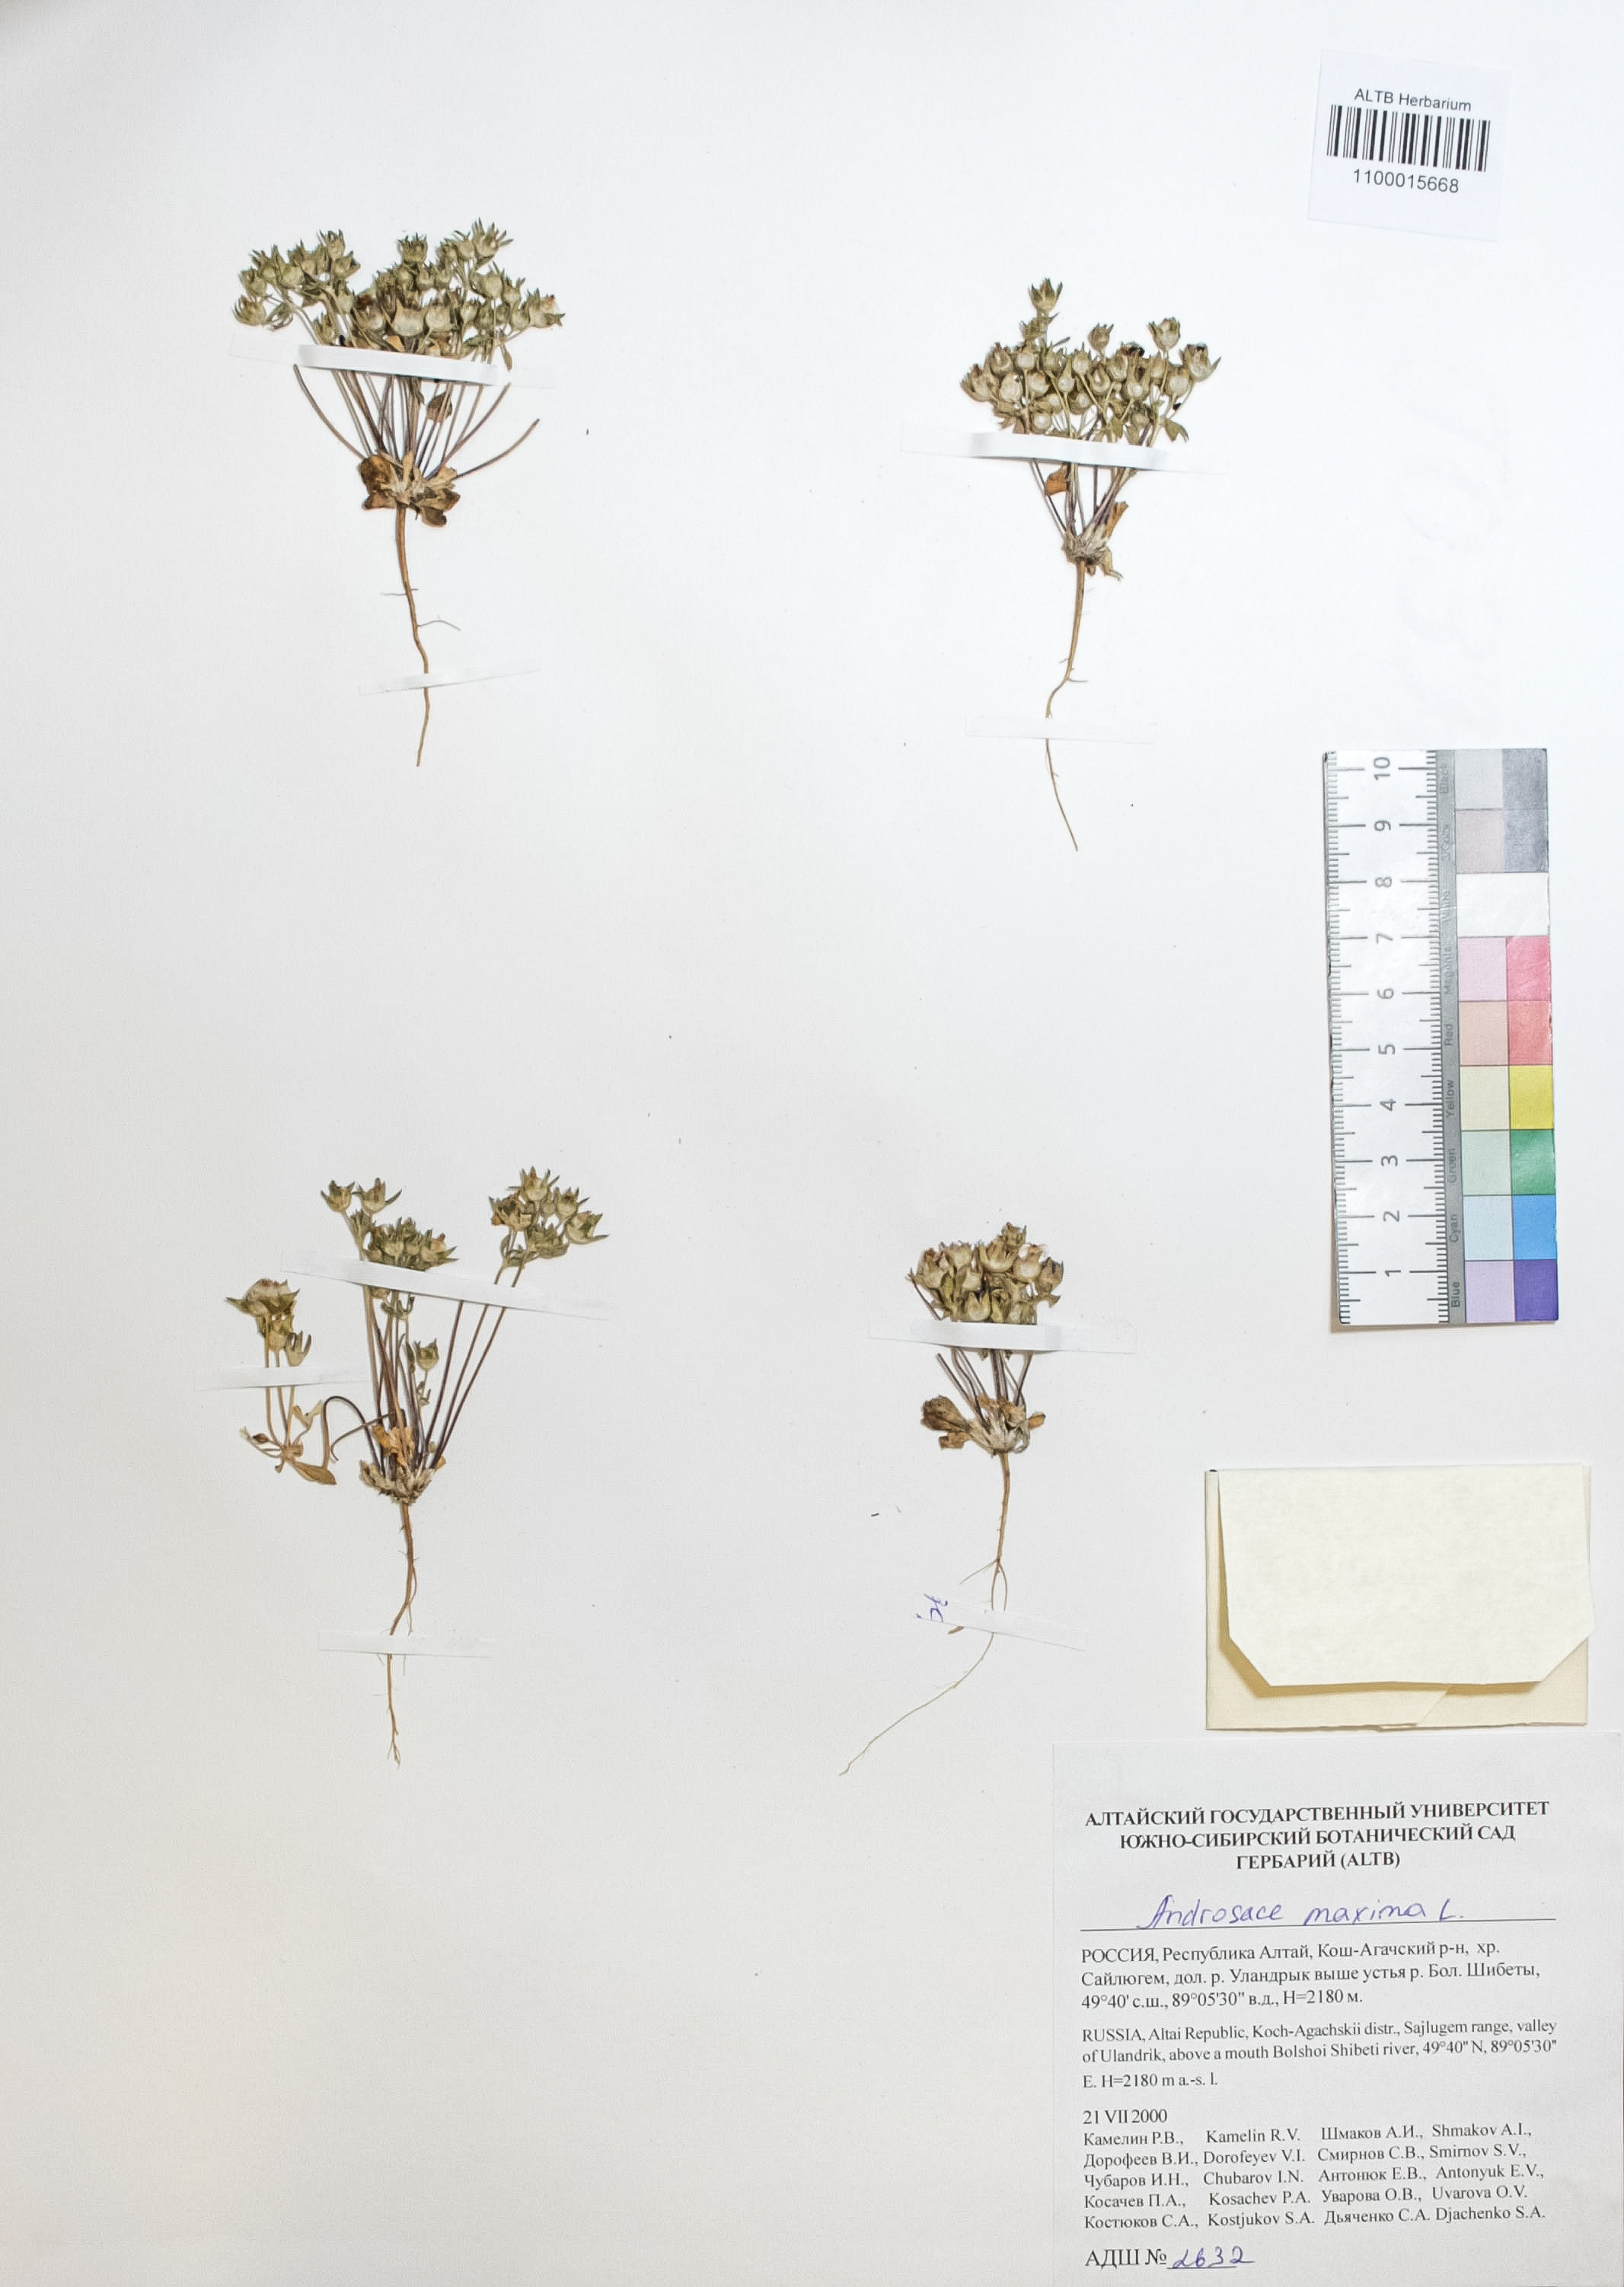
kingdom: Plantae
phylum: Tracheophyta
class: Magnoliopsida
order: Ericales
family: Primulaceae
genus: Androsace
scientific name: Androsace maxima
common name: Annual androsace
